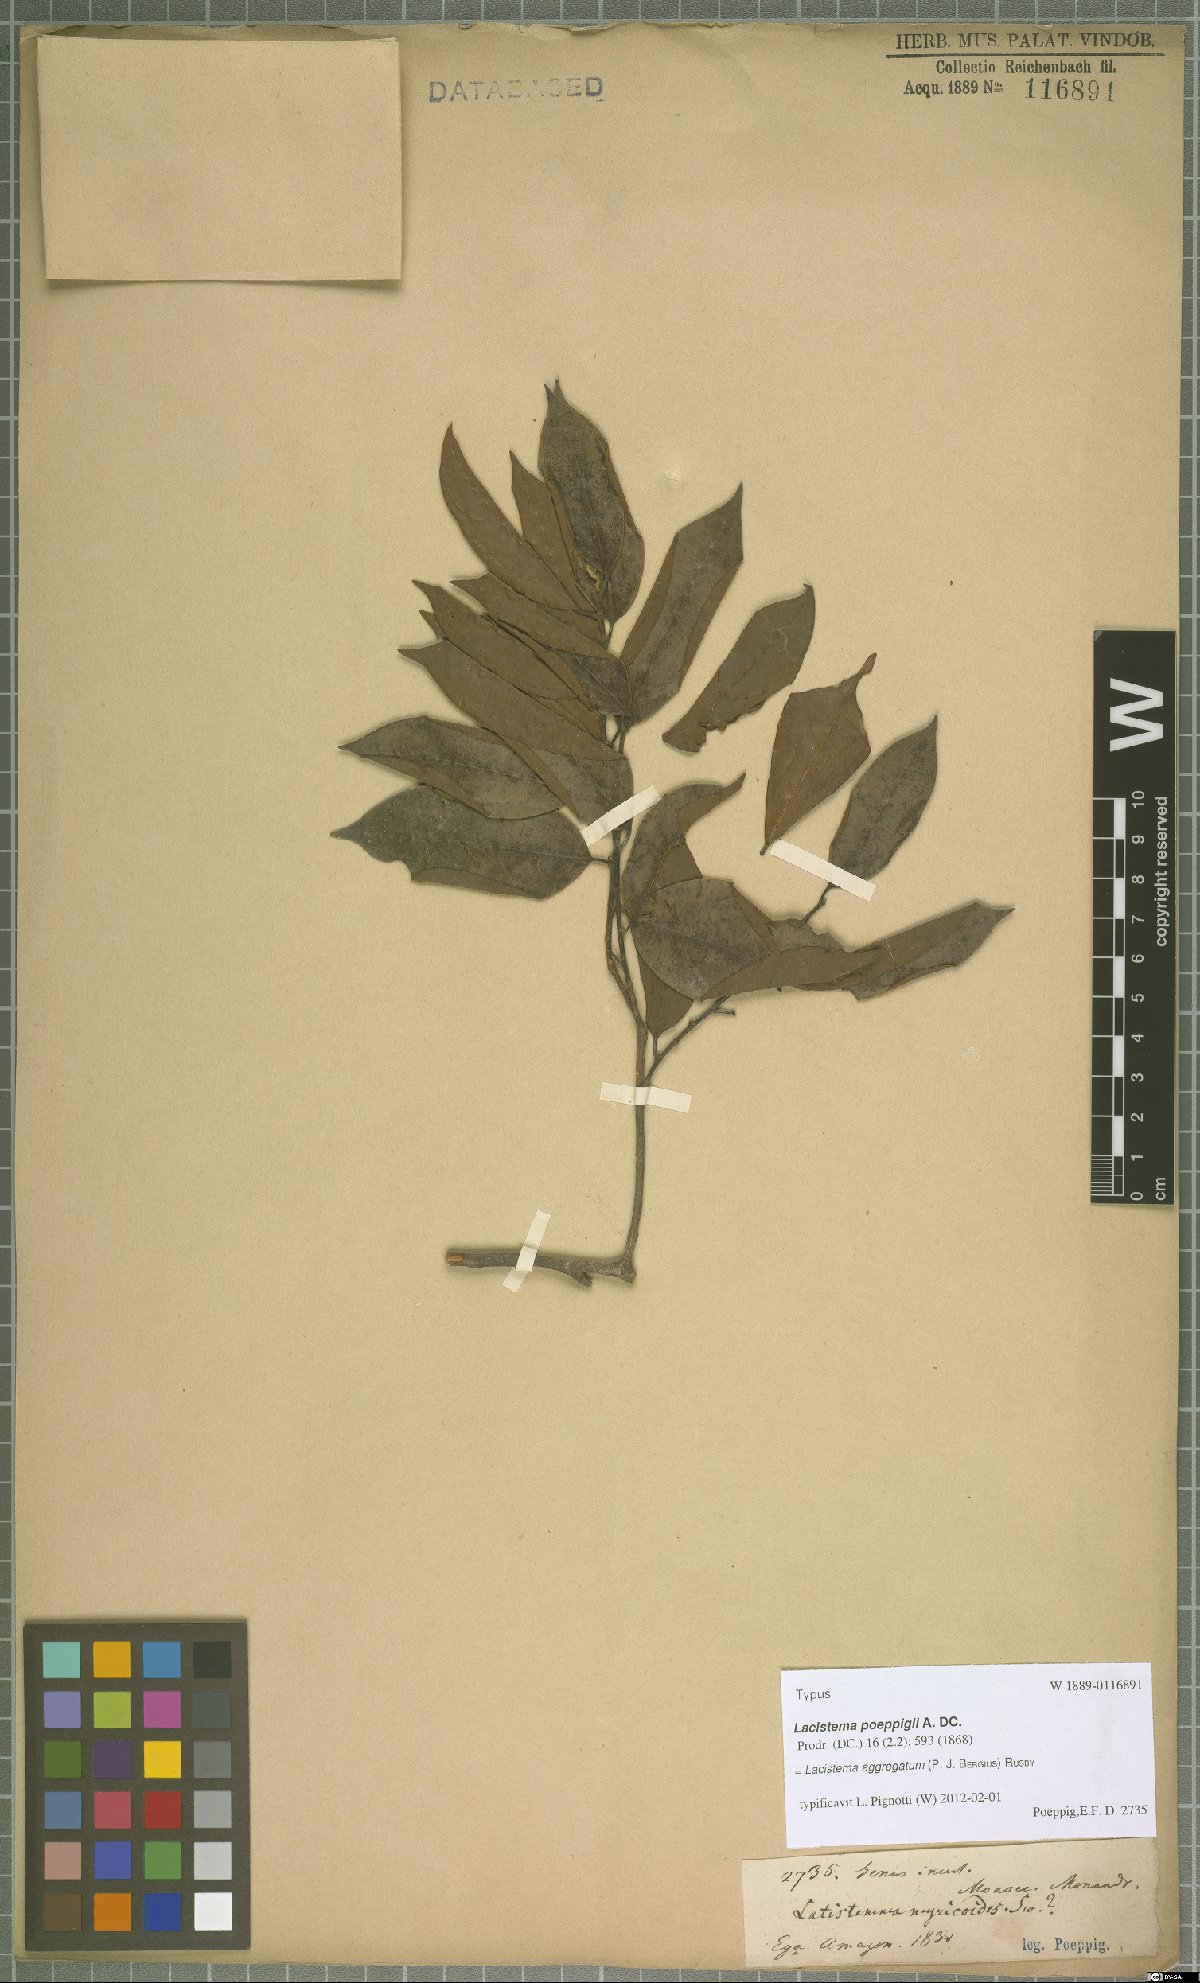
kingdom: Plantae
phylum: Tracheophyta
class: Magnoliopsida
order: Malpighiales
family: Lacistemataceae
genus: Lacistema
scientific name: Lacistema aggregatum
